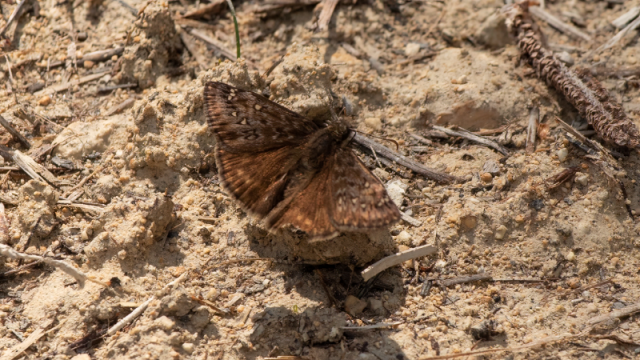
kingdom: Animalia
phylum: Arthropoda
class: Insecta
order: Lepidoptera
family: Hesperiidae
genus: Gesta
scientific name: Gesta
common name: Juvenal's Duskywing
